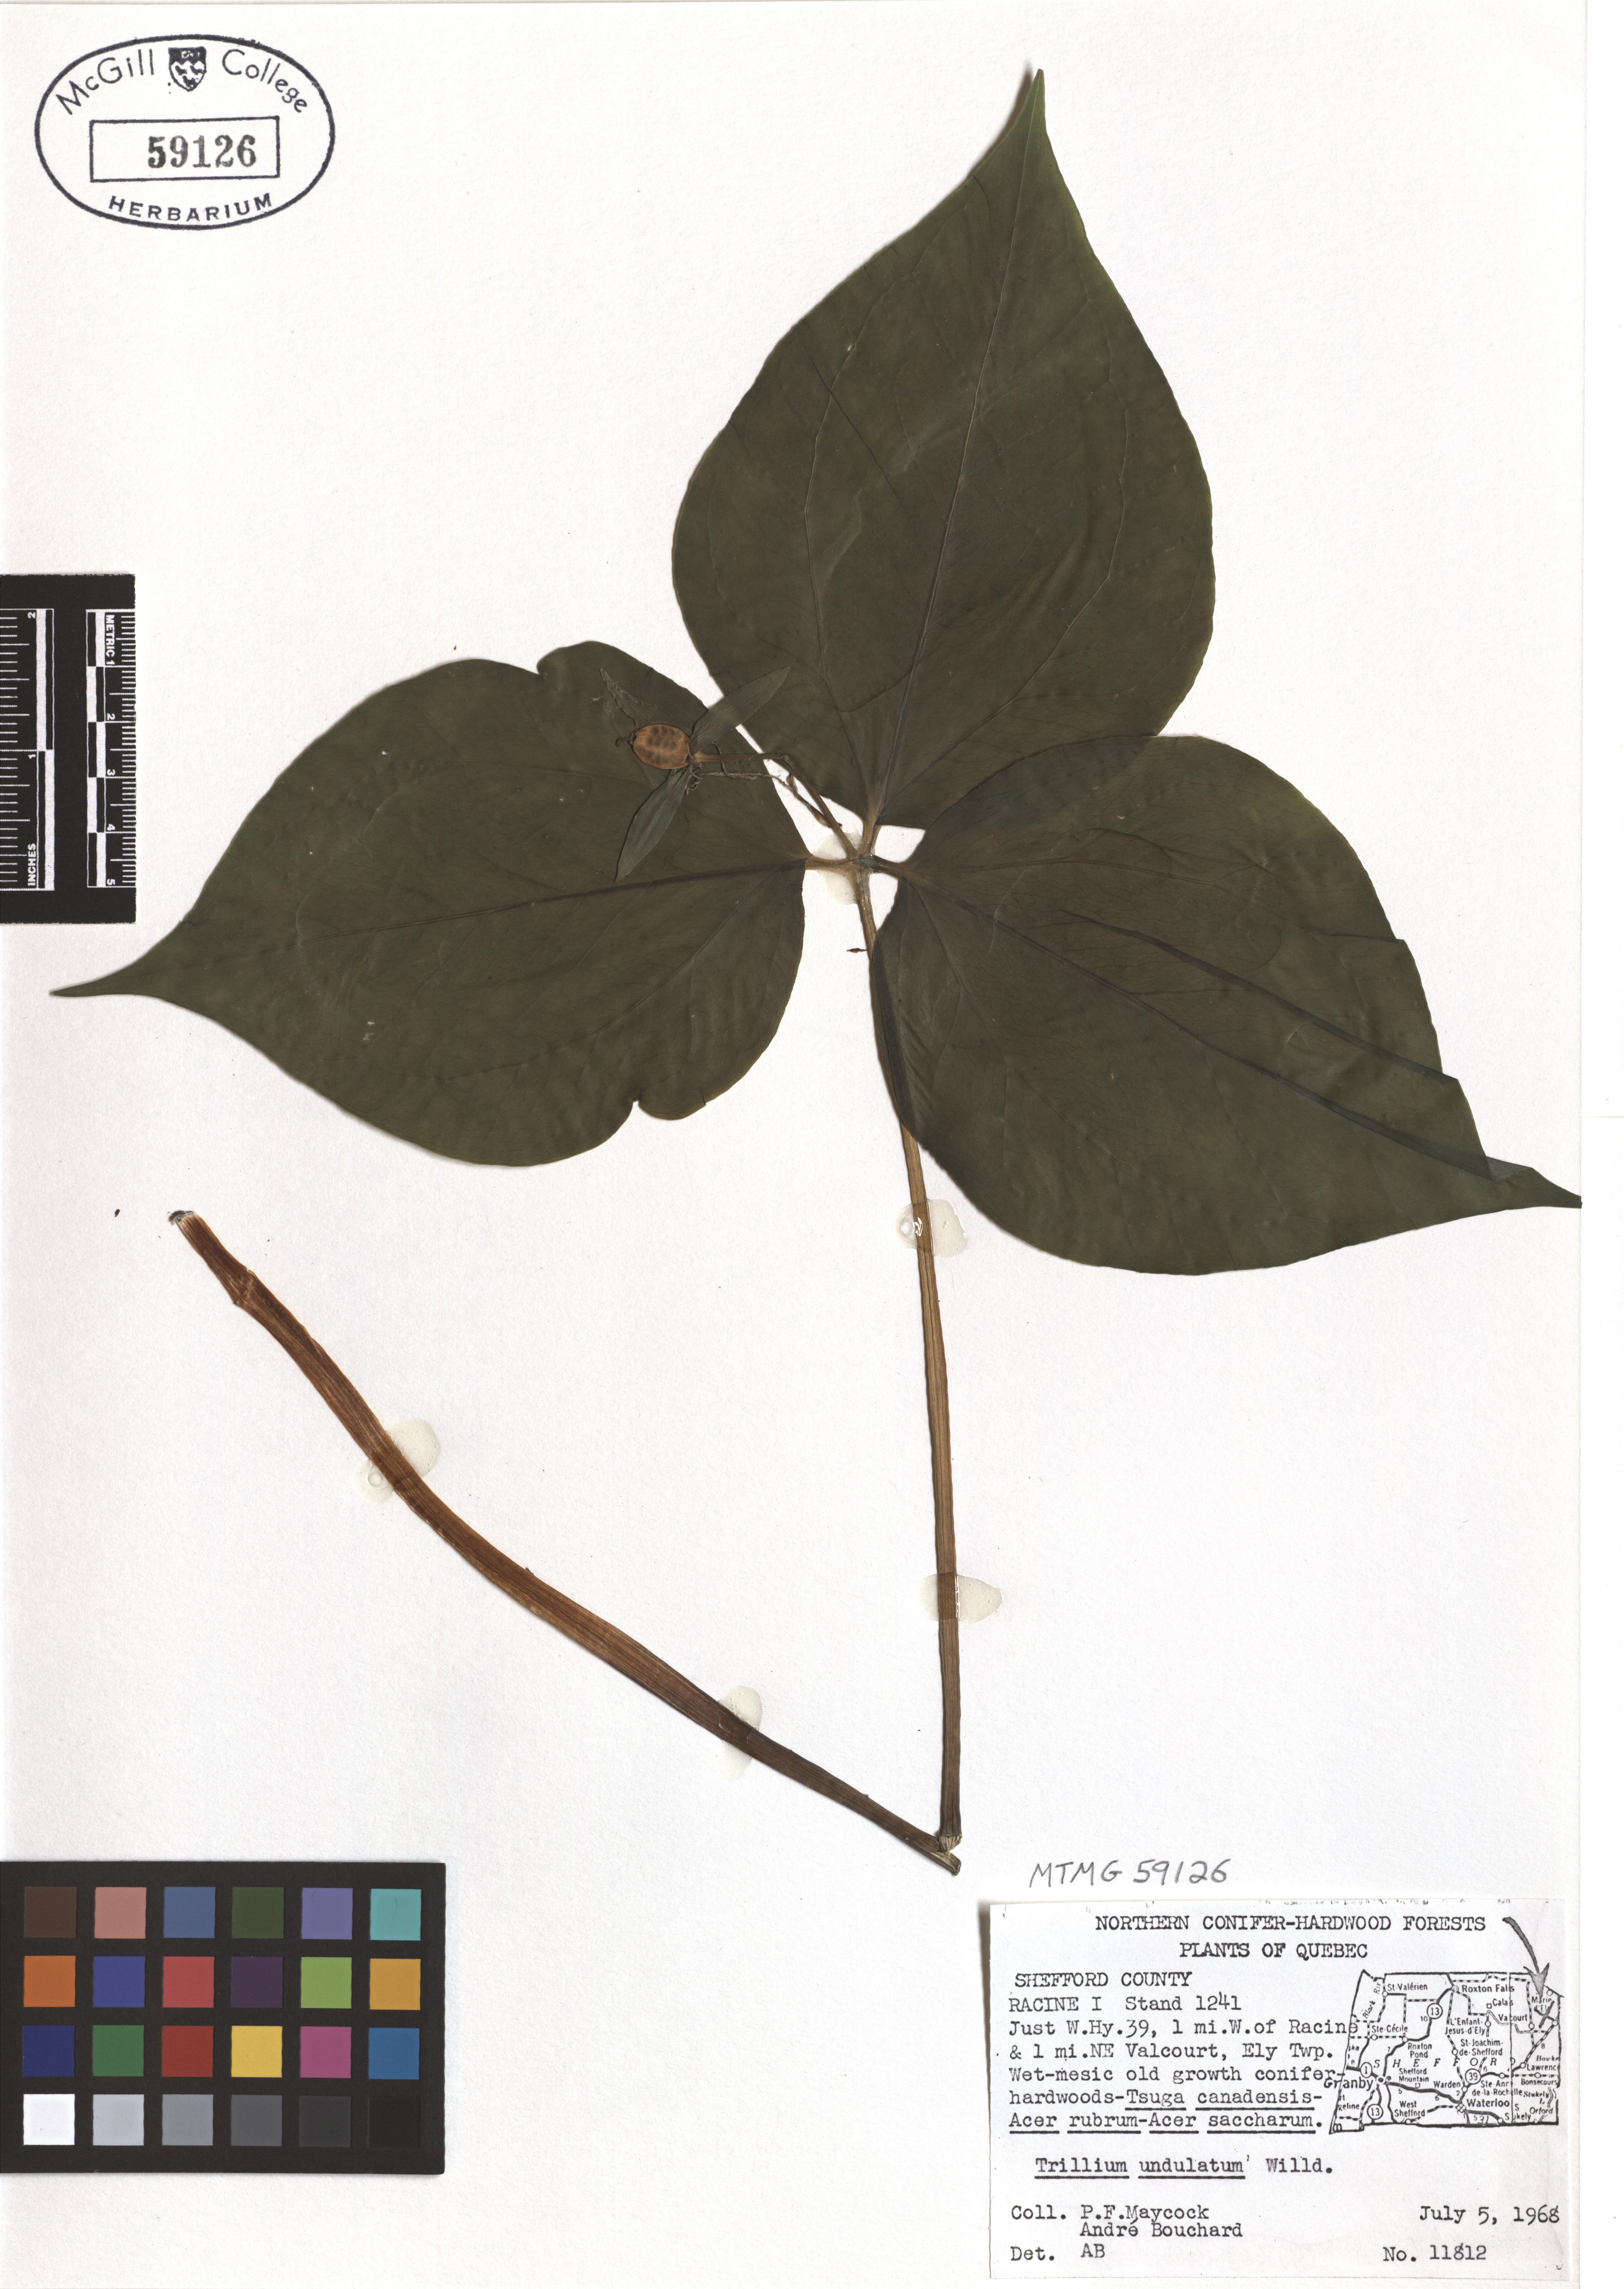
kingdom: Plantae
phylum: Tracheophyta
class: Liliopsida
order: Liliales
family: Melanthiaceae
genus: Trillium
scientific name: Trillium undulatum
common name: Paint trillium
